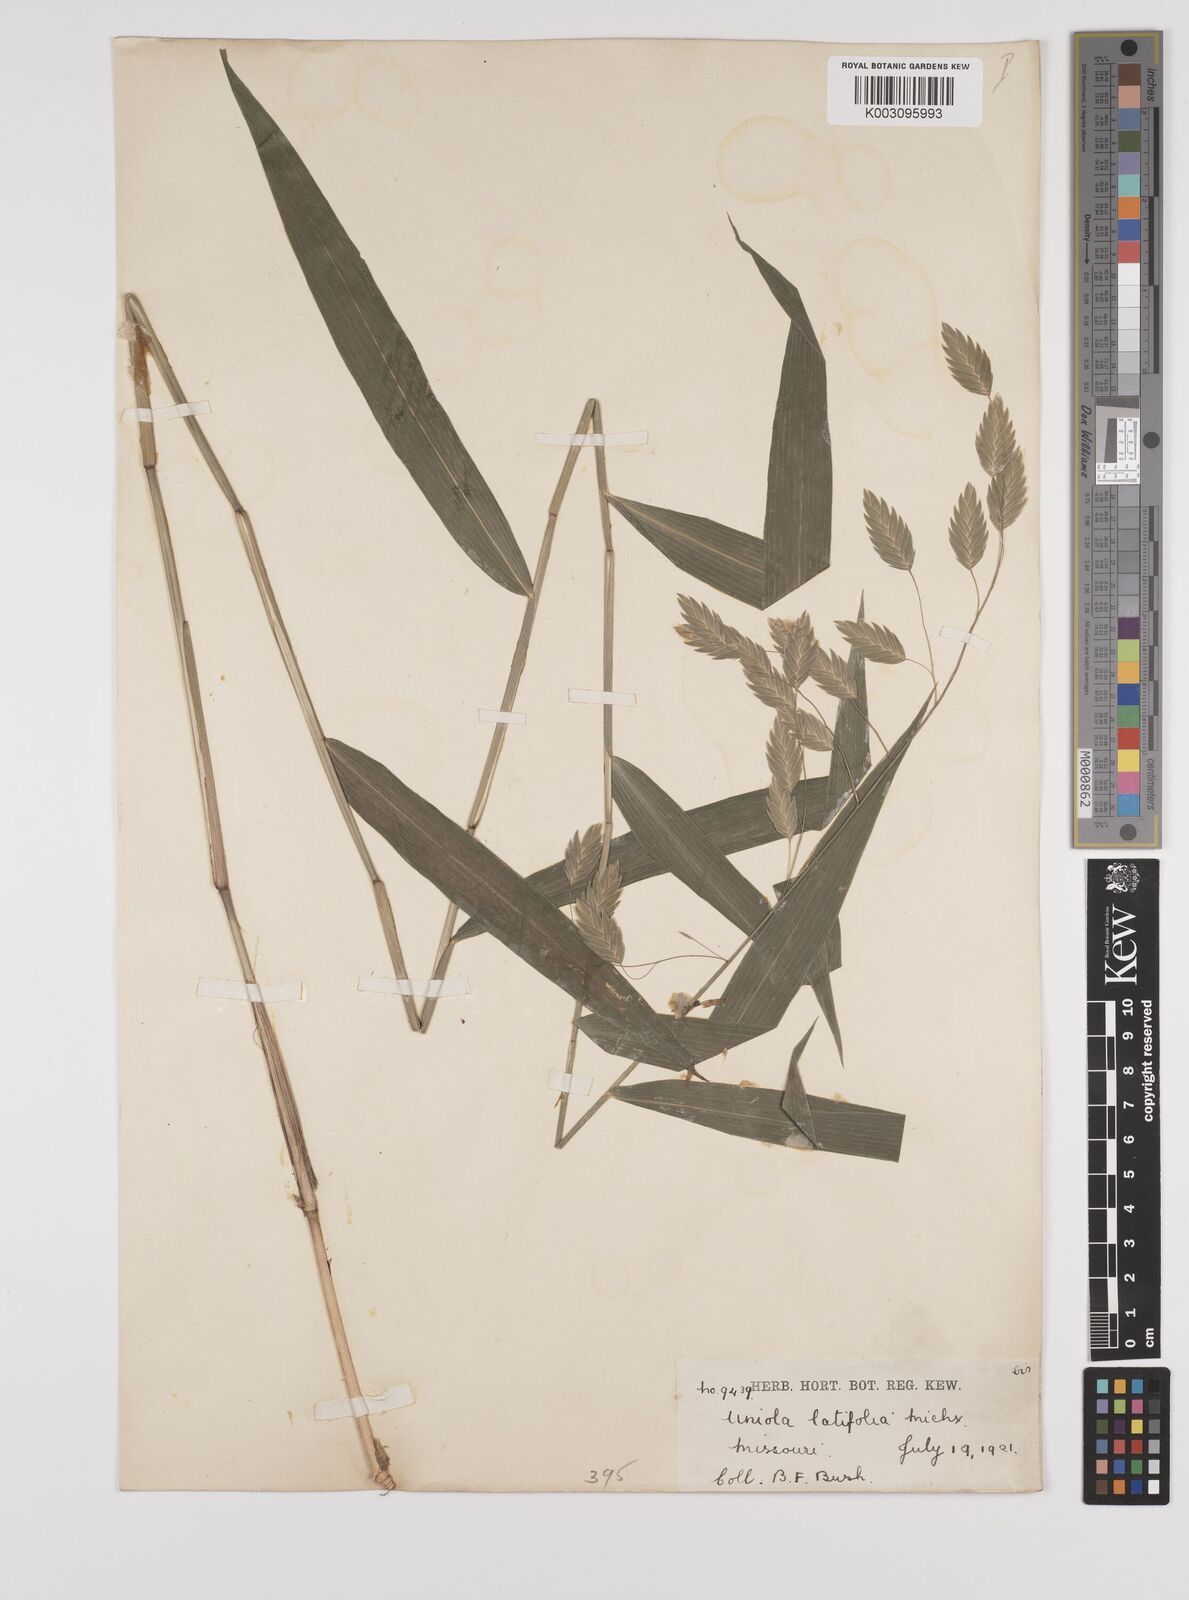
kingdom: Plantae
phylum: Tracheophyta
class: Liliopsida
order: Poales
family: Poaceae
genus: Chasmanthium
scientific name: Chasmanthium latifolium
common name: Broad-leaved chasmanthium
